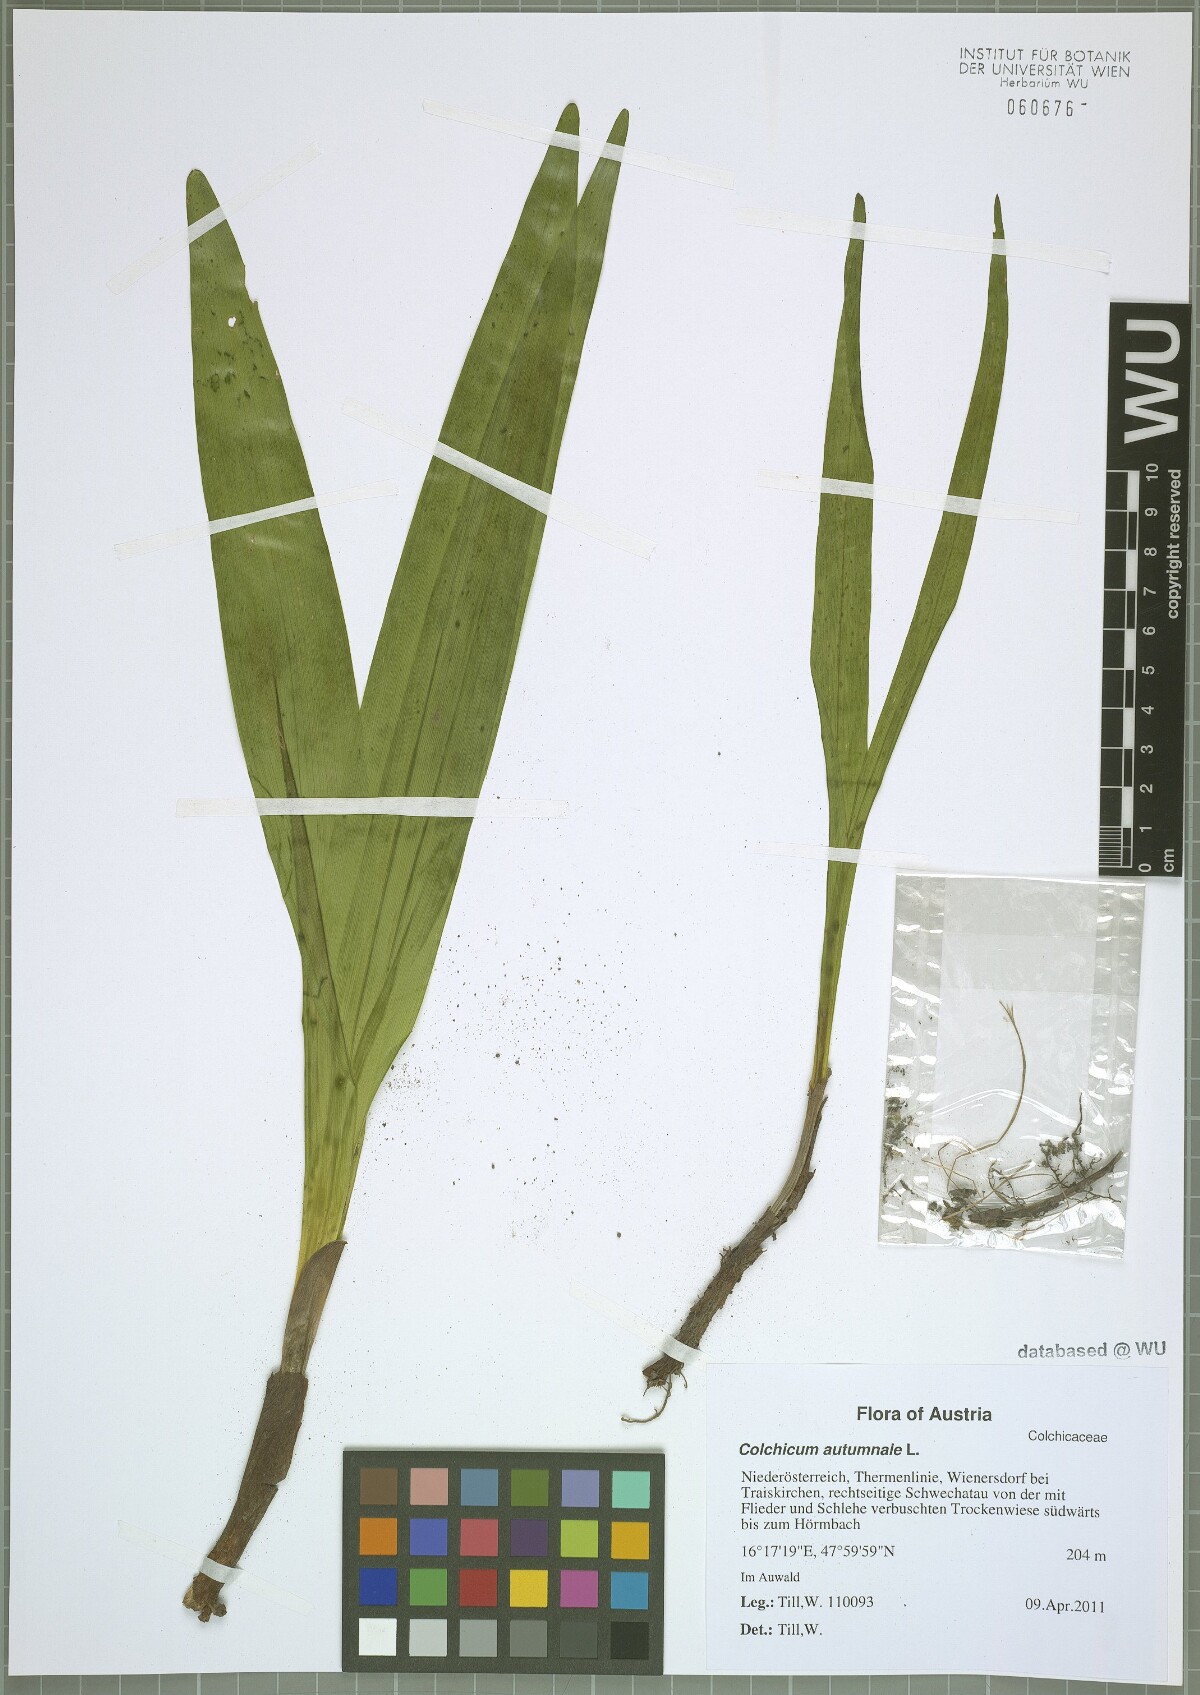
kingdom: Plantae
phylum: Tracheophyta
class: Liliopsida
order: Liliales
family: Colchicaceae
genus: Colchicum
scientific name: Colchicum autumnale
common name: Autumn crocus
